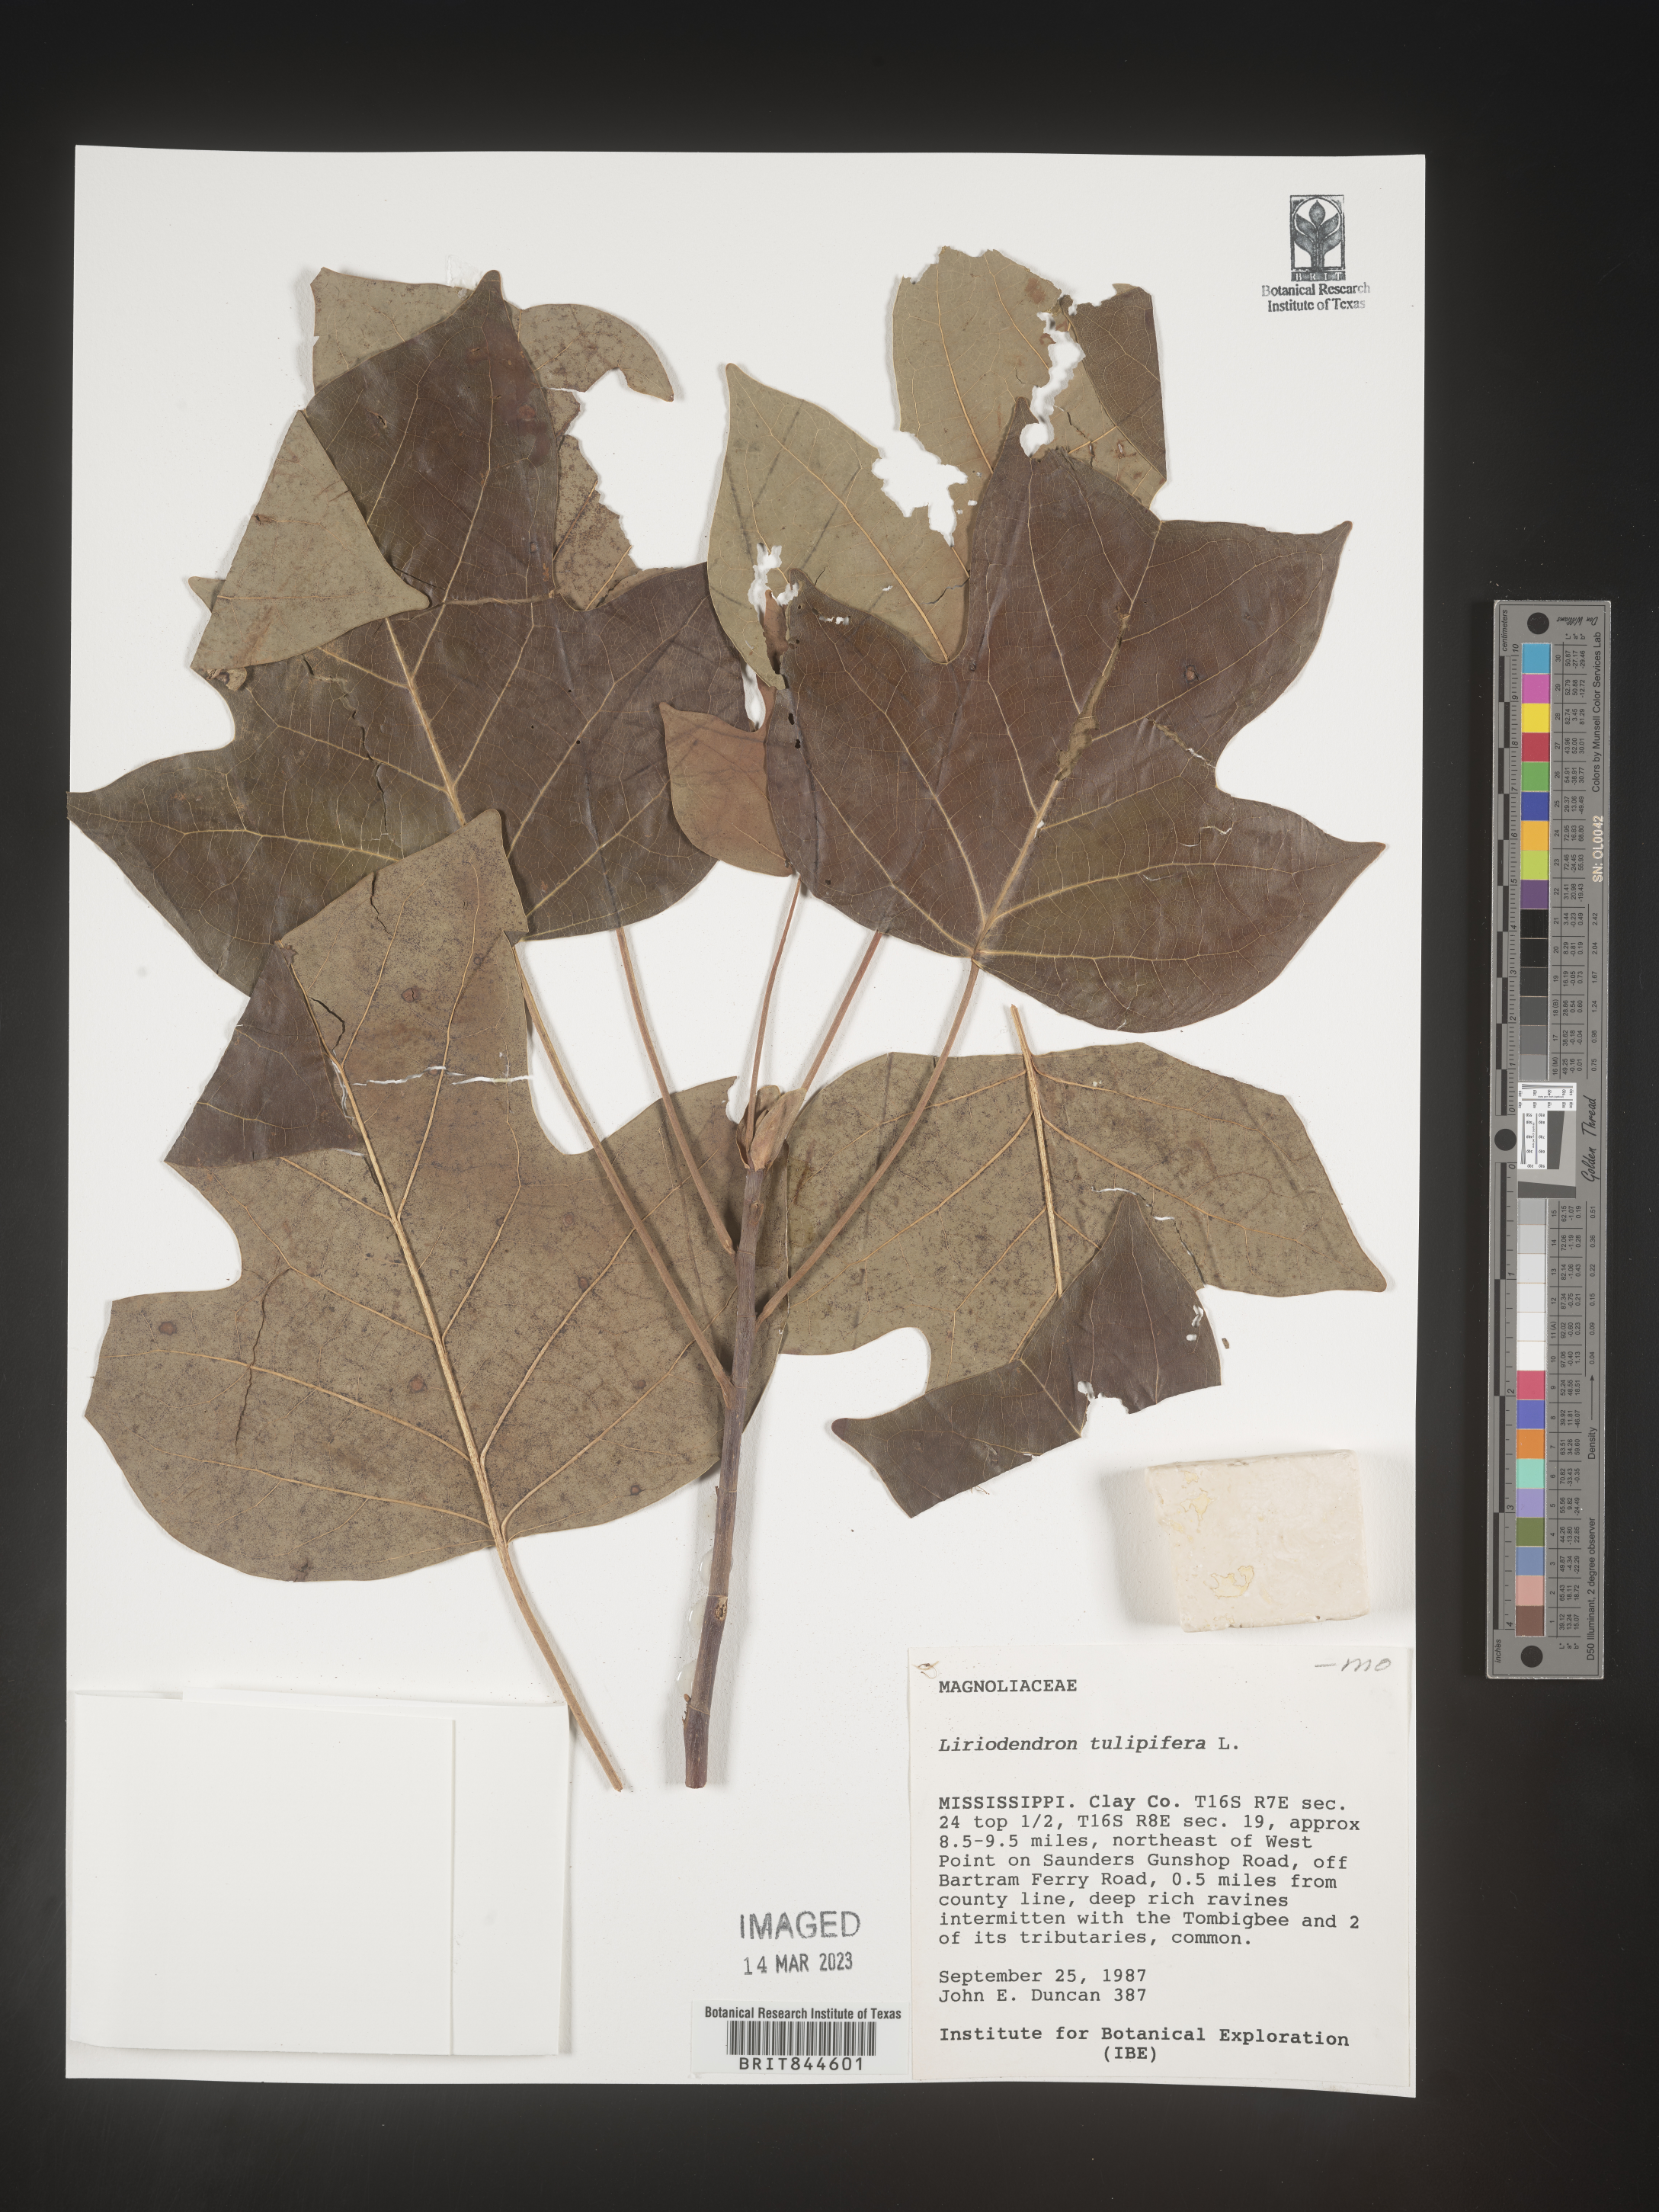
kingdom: Plantae
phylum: Tracheophyta
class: Magnoliopsida
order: Magnoliales
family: Magnoliaceae
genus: Liriodendron
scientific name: Liriodendron tulipifera
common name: Tulip tree
